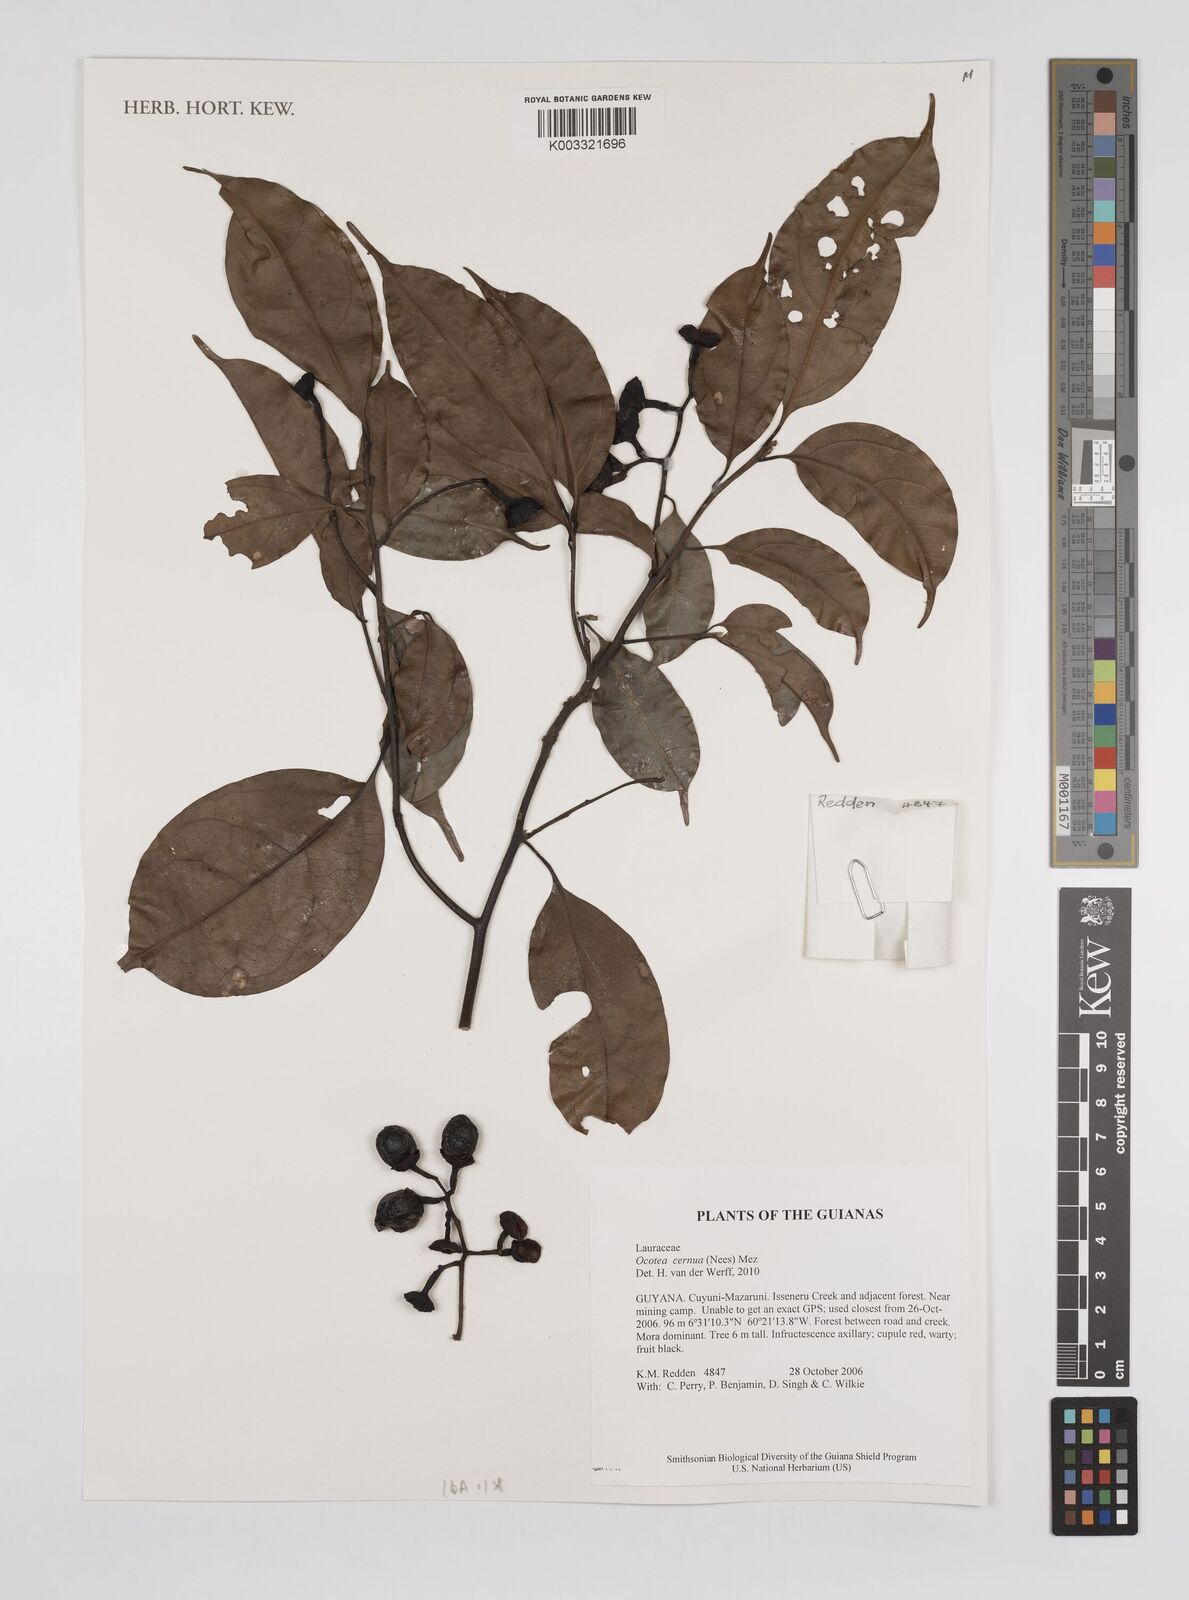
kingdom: Plantae
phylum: Tracheophyta
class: Magnoliopsida
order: Laurales
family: Lauraceae
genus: Ocotea
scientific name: Ocotea leptobotra
